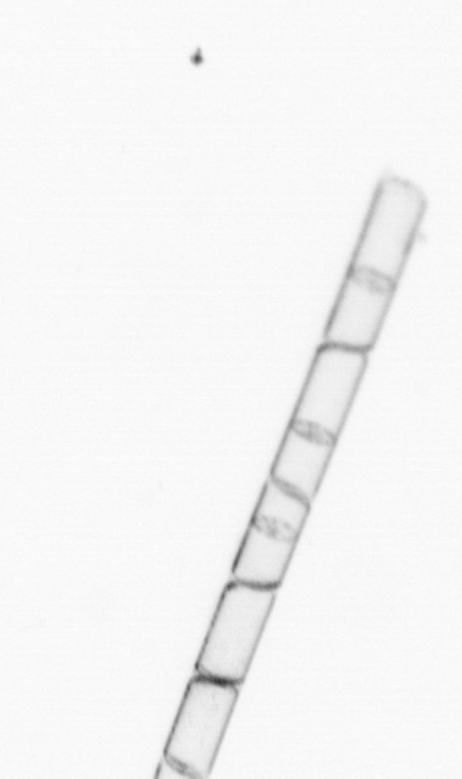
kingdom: Chromista
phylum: Ochrophyta
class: Bacillariophyceae
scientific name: Bacillariophyceae
